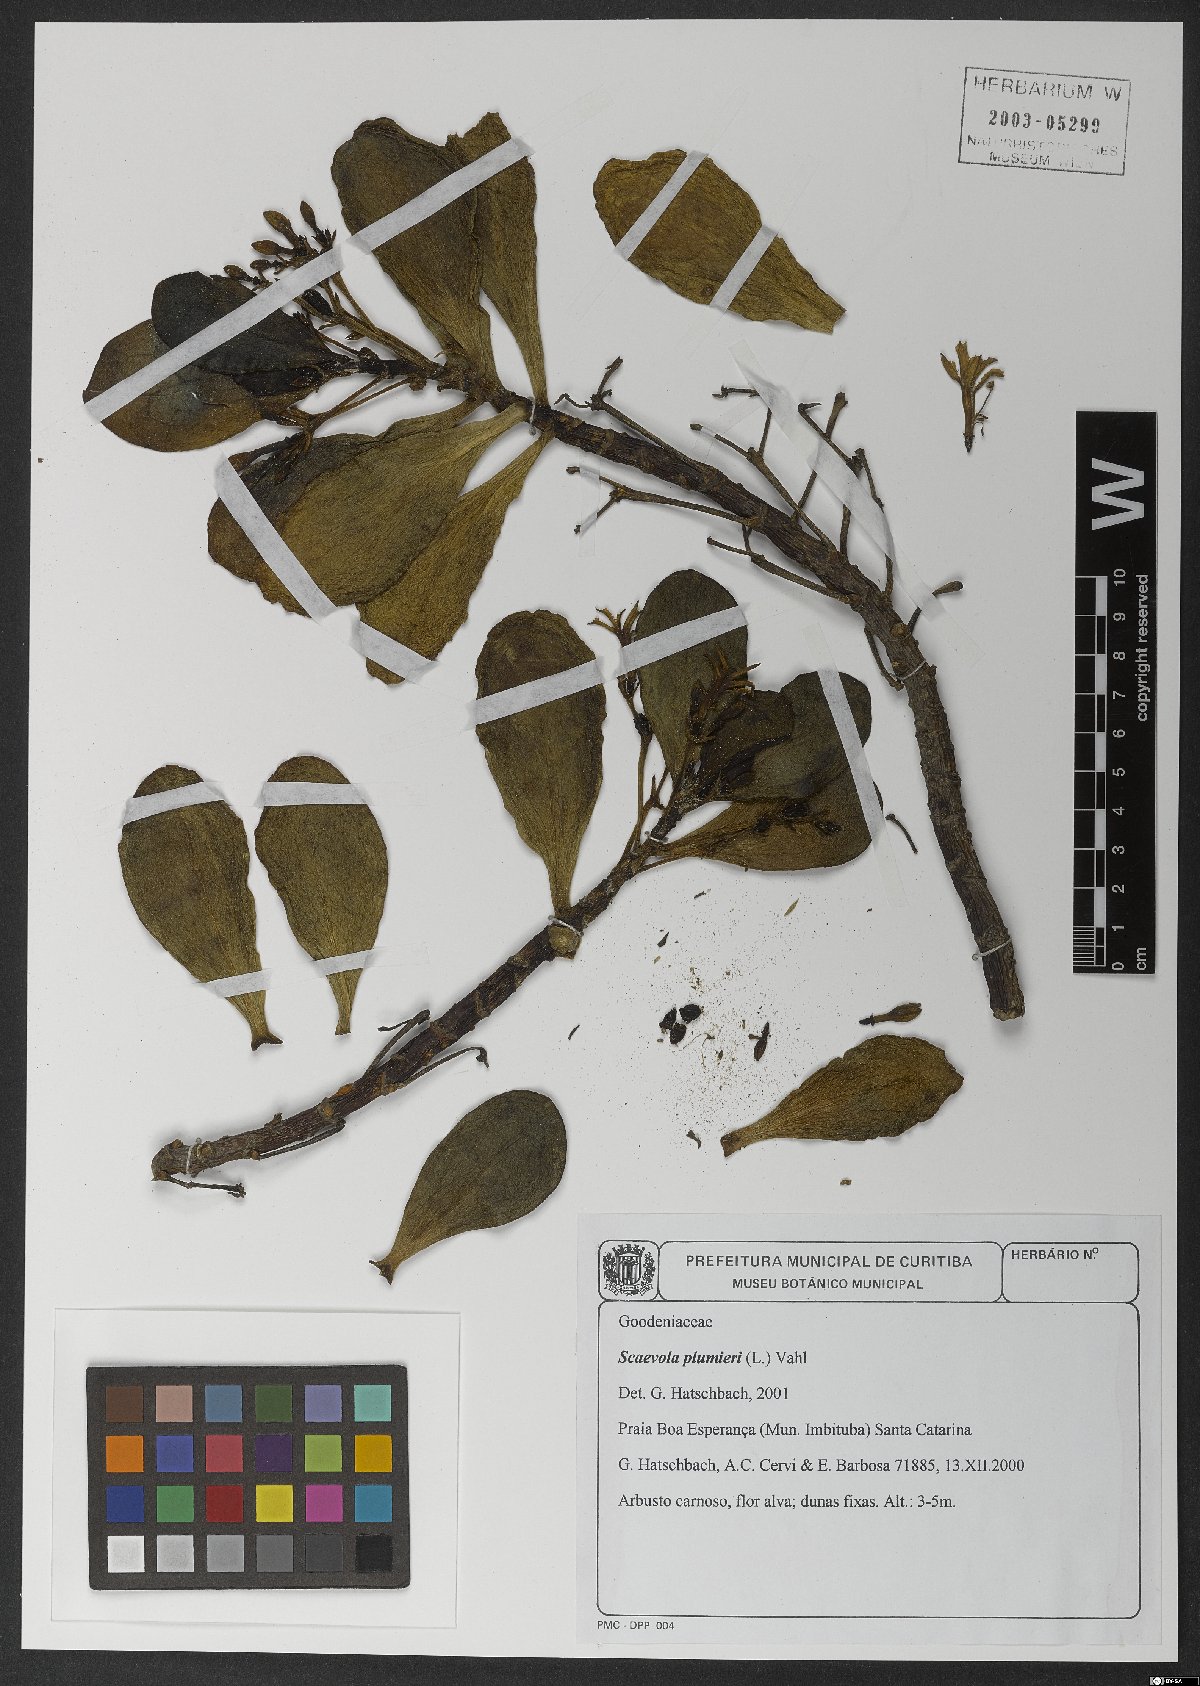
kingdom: Plantae
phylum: Tracheophyta
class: Magnoliopsida
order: Asterales
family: Goodeniaceae
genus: Scaevola
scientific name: Scaevola plumieri
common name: Gull feed
